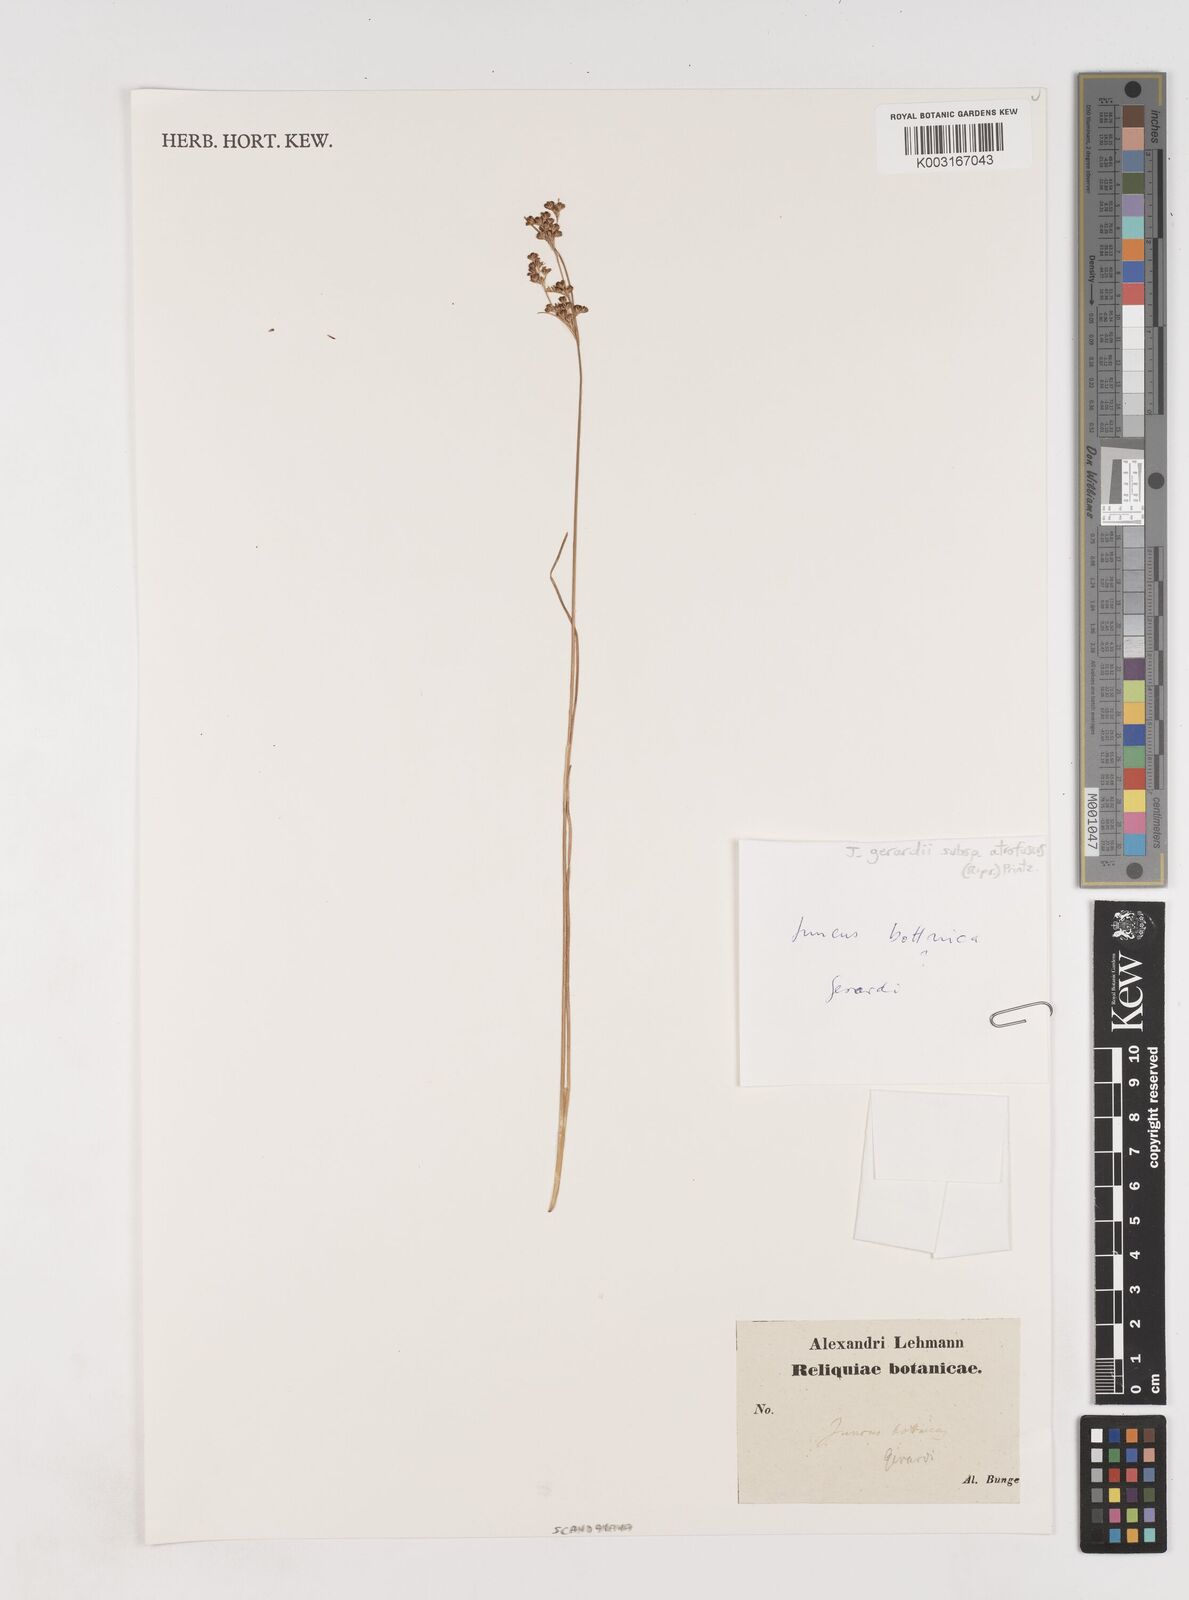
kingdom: Plantae
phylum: Tracheophyta
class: Liliopsida
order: Poales
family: Juncaceae
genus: Juncus
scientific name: Juncus gerardi
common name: Saltmarsh rush
